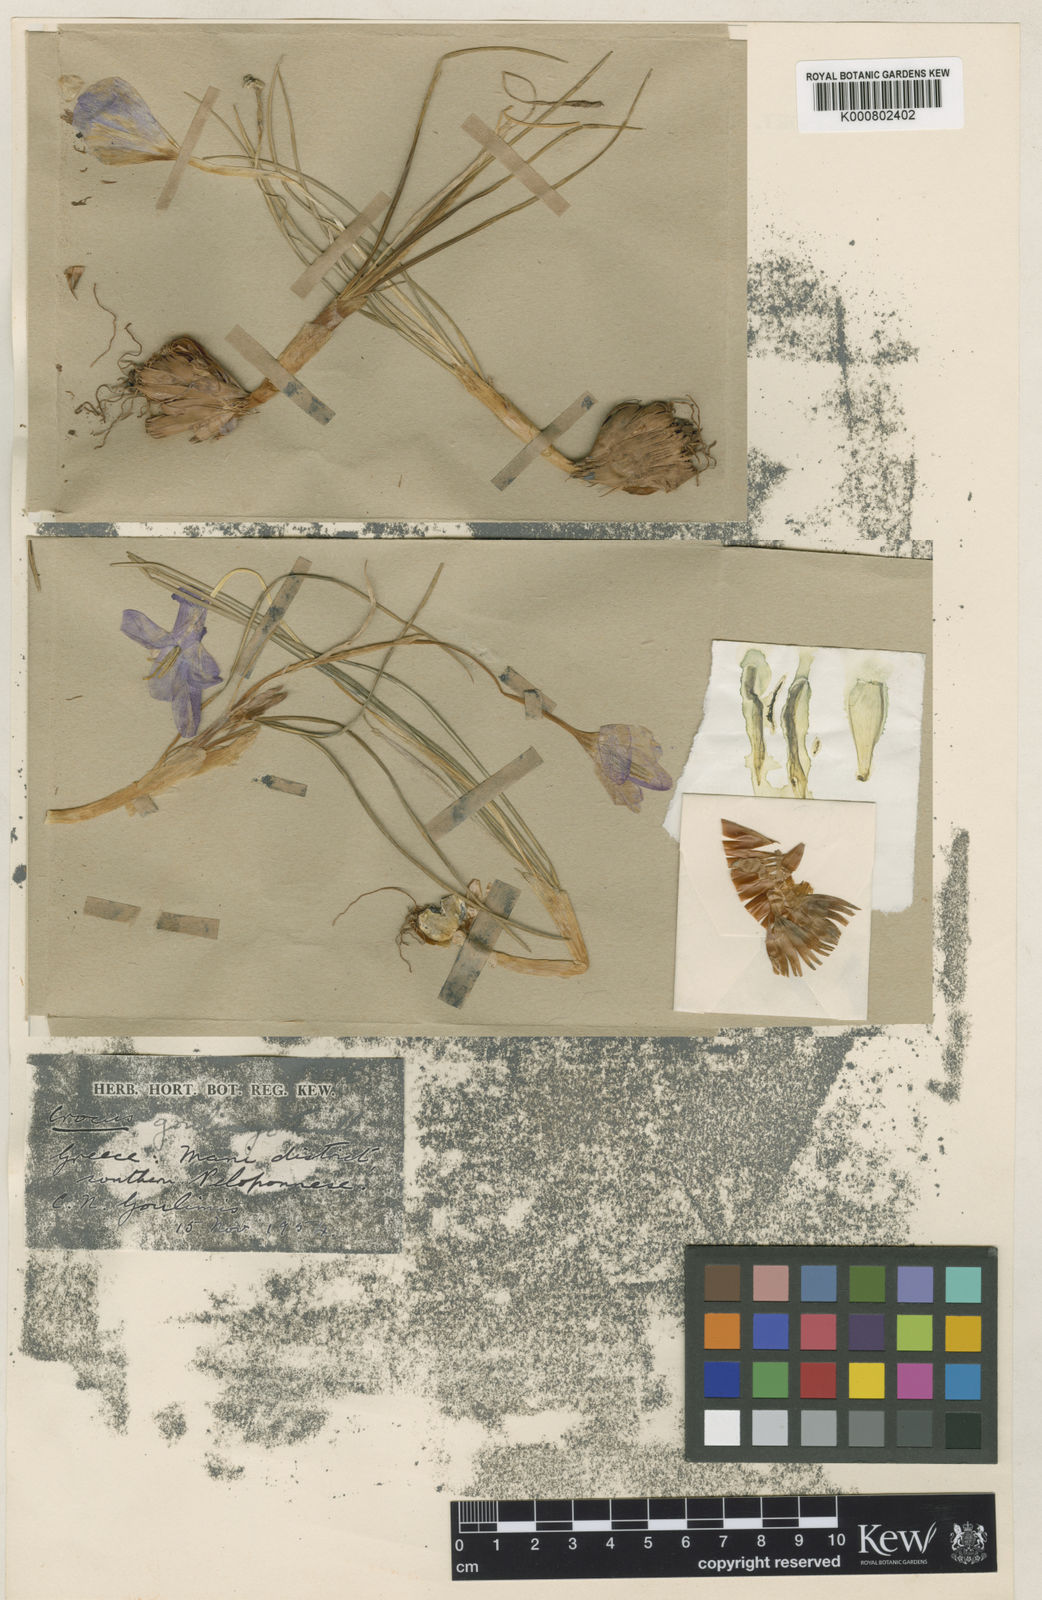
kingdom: Plantae
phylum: Tracheophyta
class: Liliopsida
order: Asparagales
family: Iridaceae
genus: Crocus
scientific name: Crocus goulimyi
